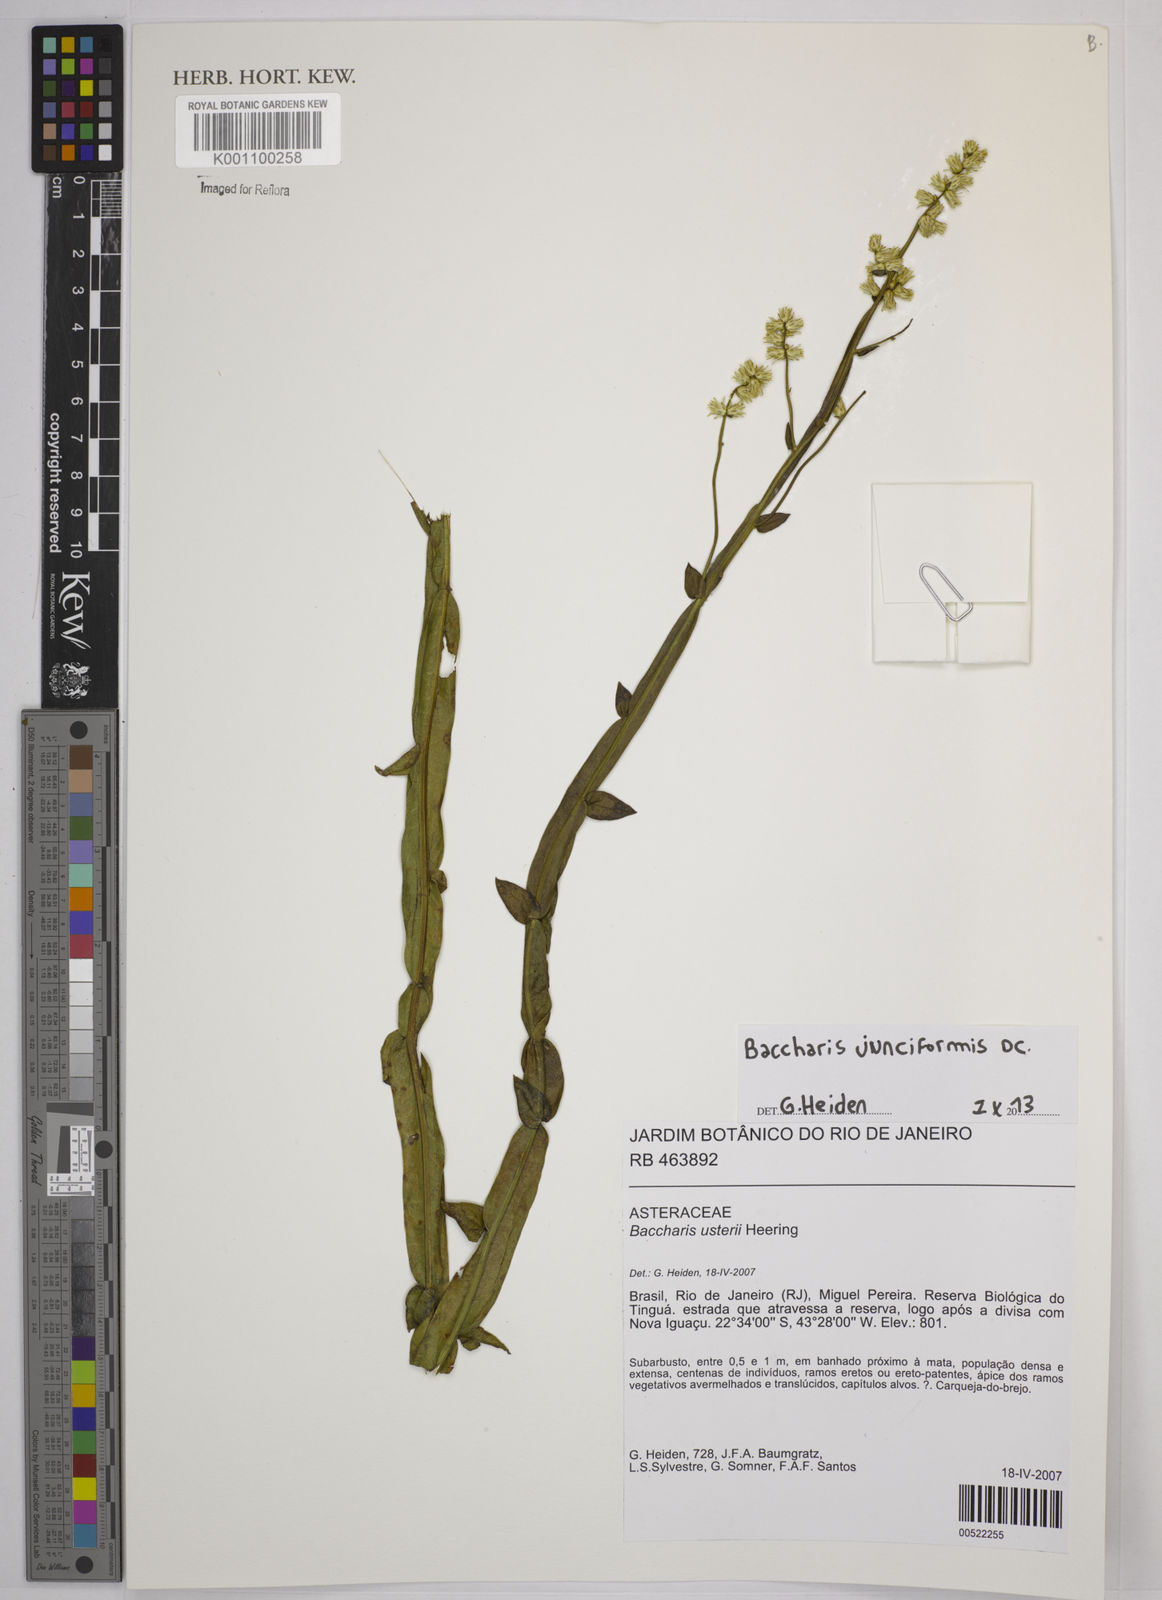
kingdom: Plantae
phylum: Tracheophyta
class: Magnoliopsida
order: Asterales
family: Asteraceae
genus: Baccharis
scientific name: Baccharis junciformis
